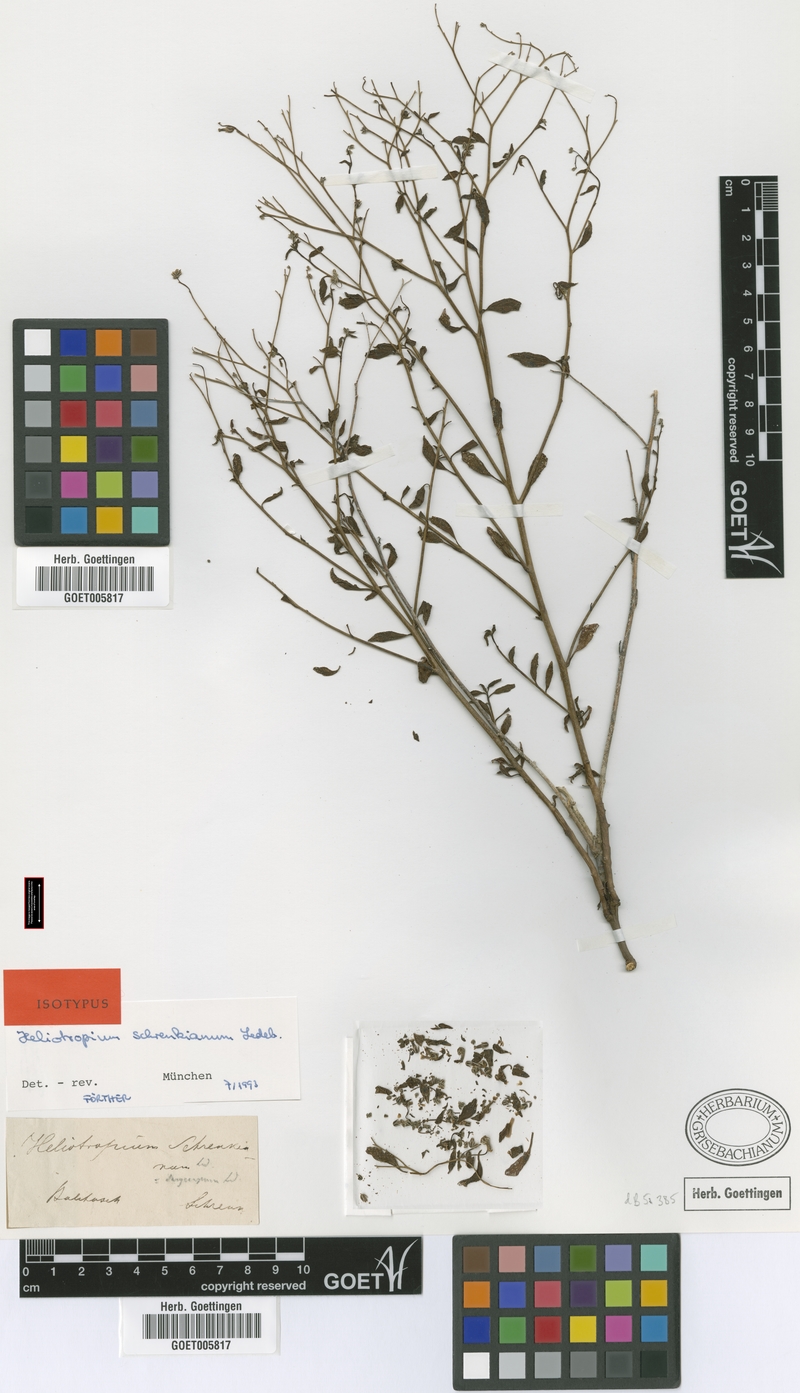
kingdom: Plantae
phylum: Tracheophyta
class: Magnoliopsida
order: Boraginales
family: Heliotropiaceae
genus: Heliotropium
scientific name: Heliotropium dasycarpum
